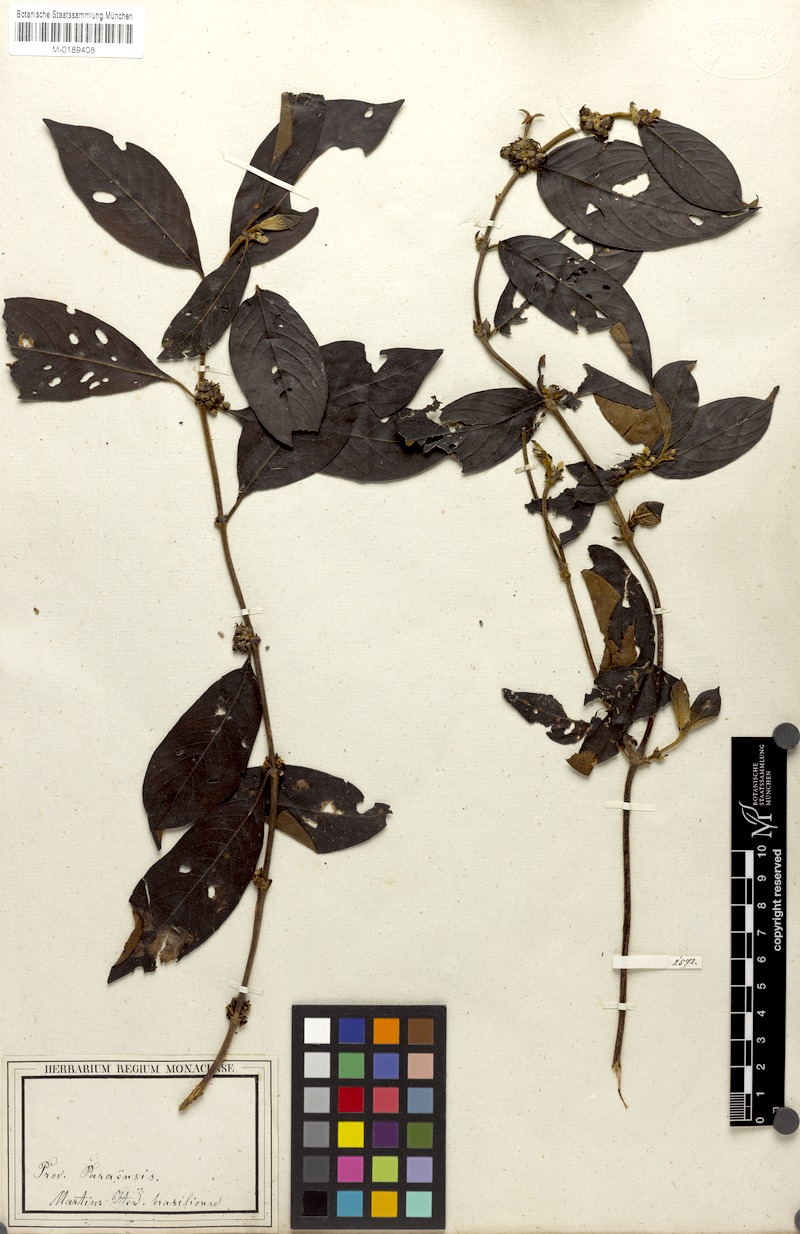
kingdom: Plantae
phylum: Tracheophyta
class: Magnoliopsida
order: Gentianales
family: Rubiaceae
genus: Sabicea
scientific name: Sabicea panamensis
